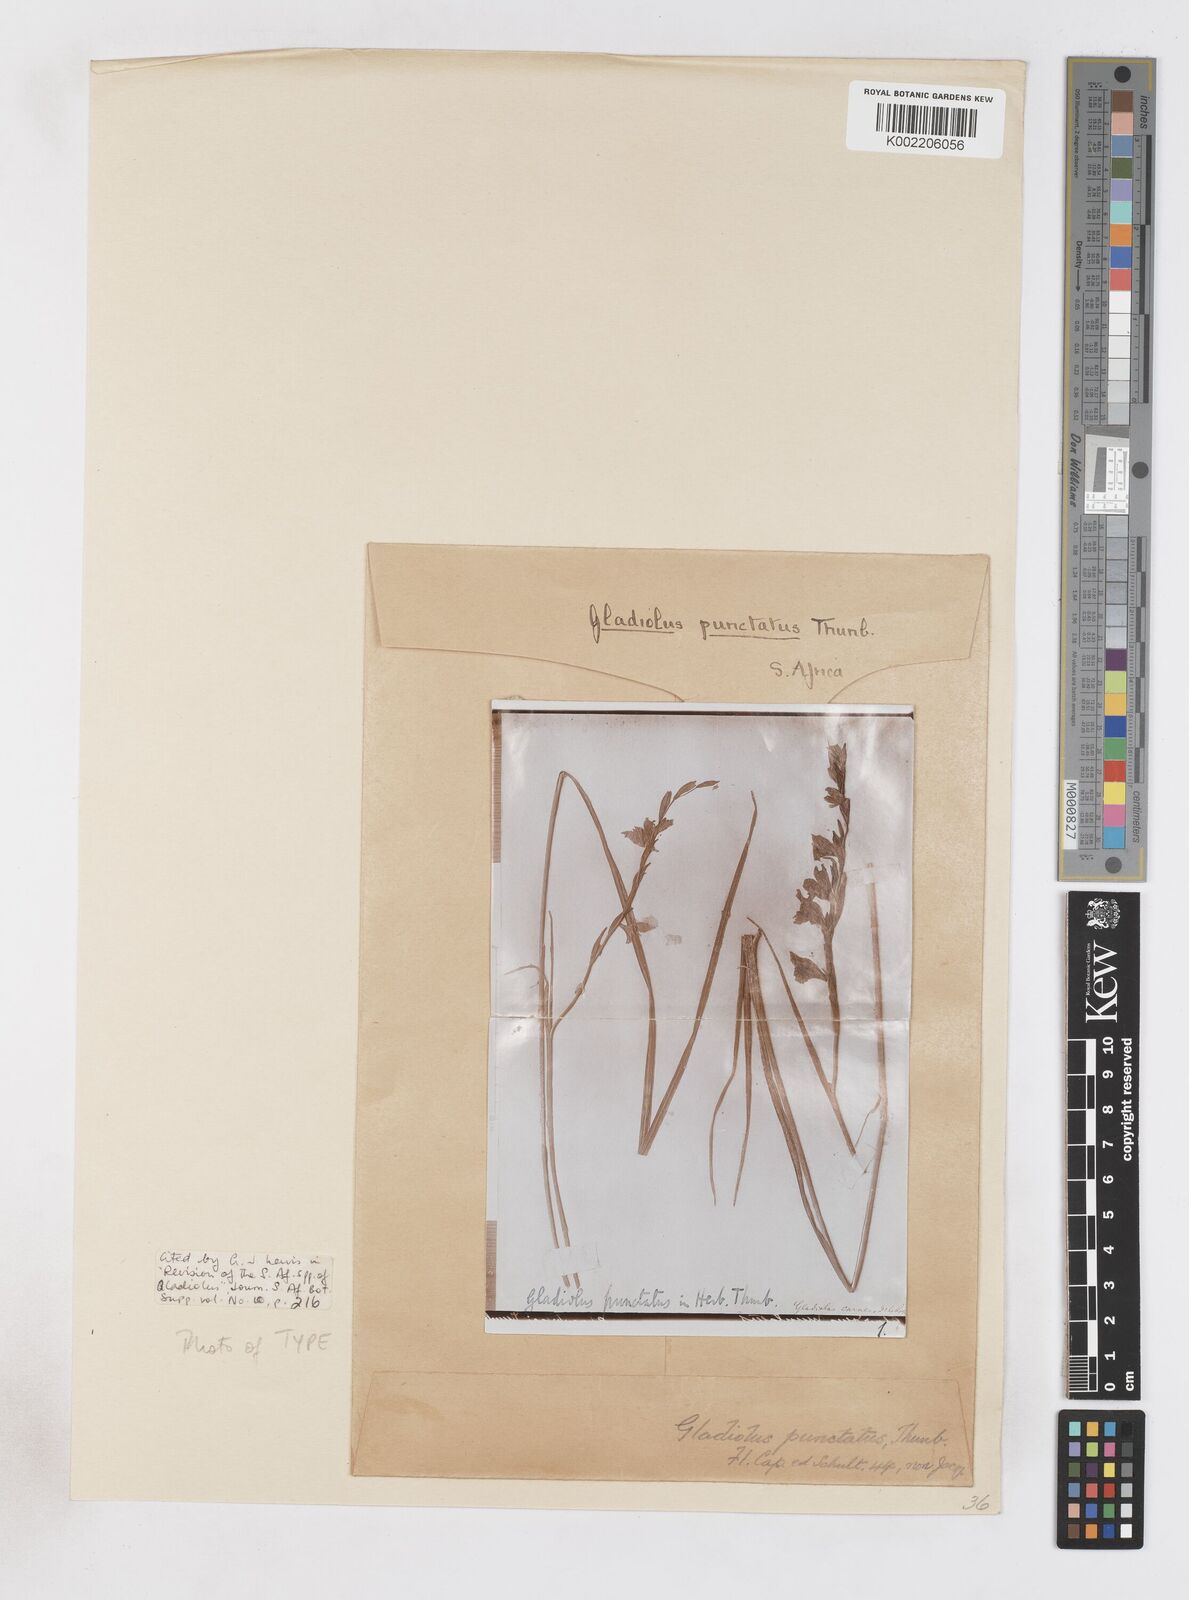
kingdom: Plantae
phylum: Tracheophyta
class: Liliopsida
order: Asparagales
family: Iridaceae
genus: Gladiolus
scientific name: Gladiolus carinatus
